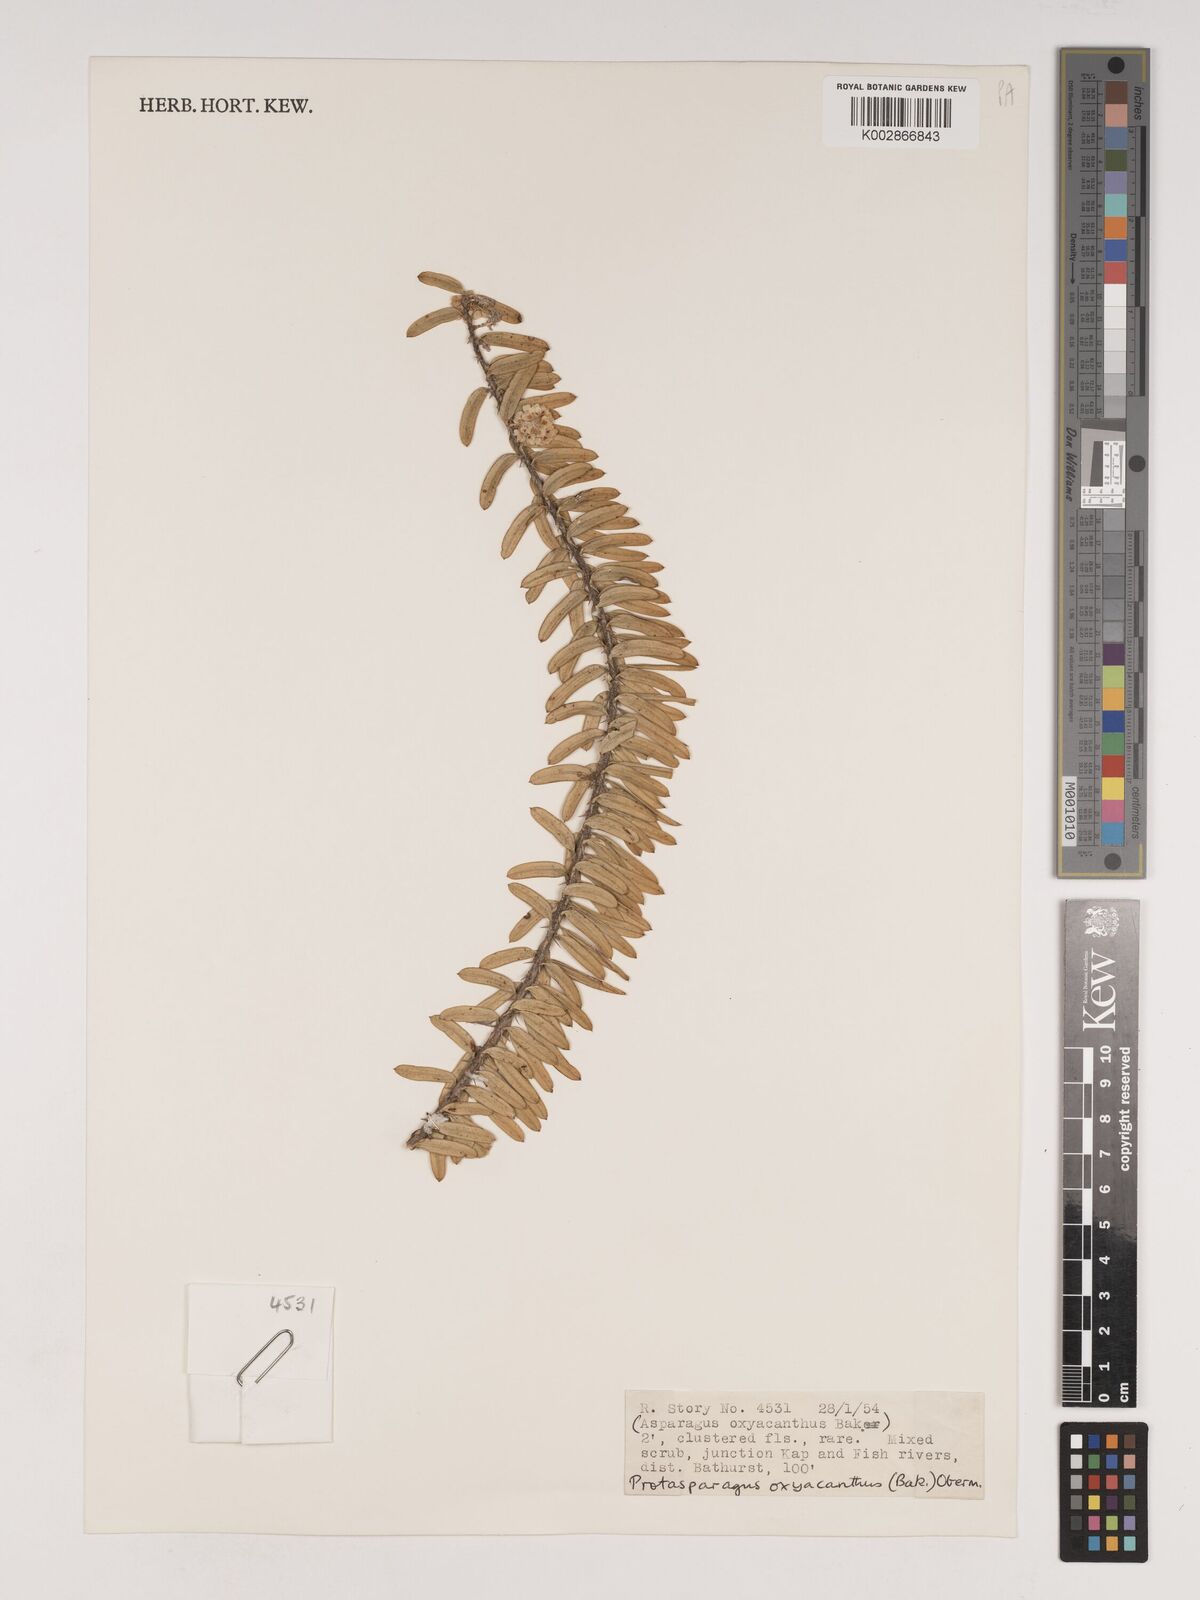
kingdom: Plantae
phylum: Tracheophyta
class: Liliopsida
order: Asparagales
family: Asparagaceae
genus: Asparagus
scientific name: Asparagus oxyacanthus
